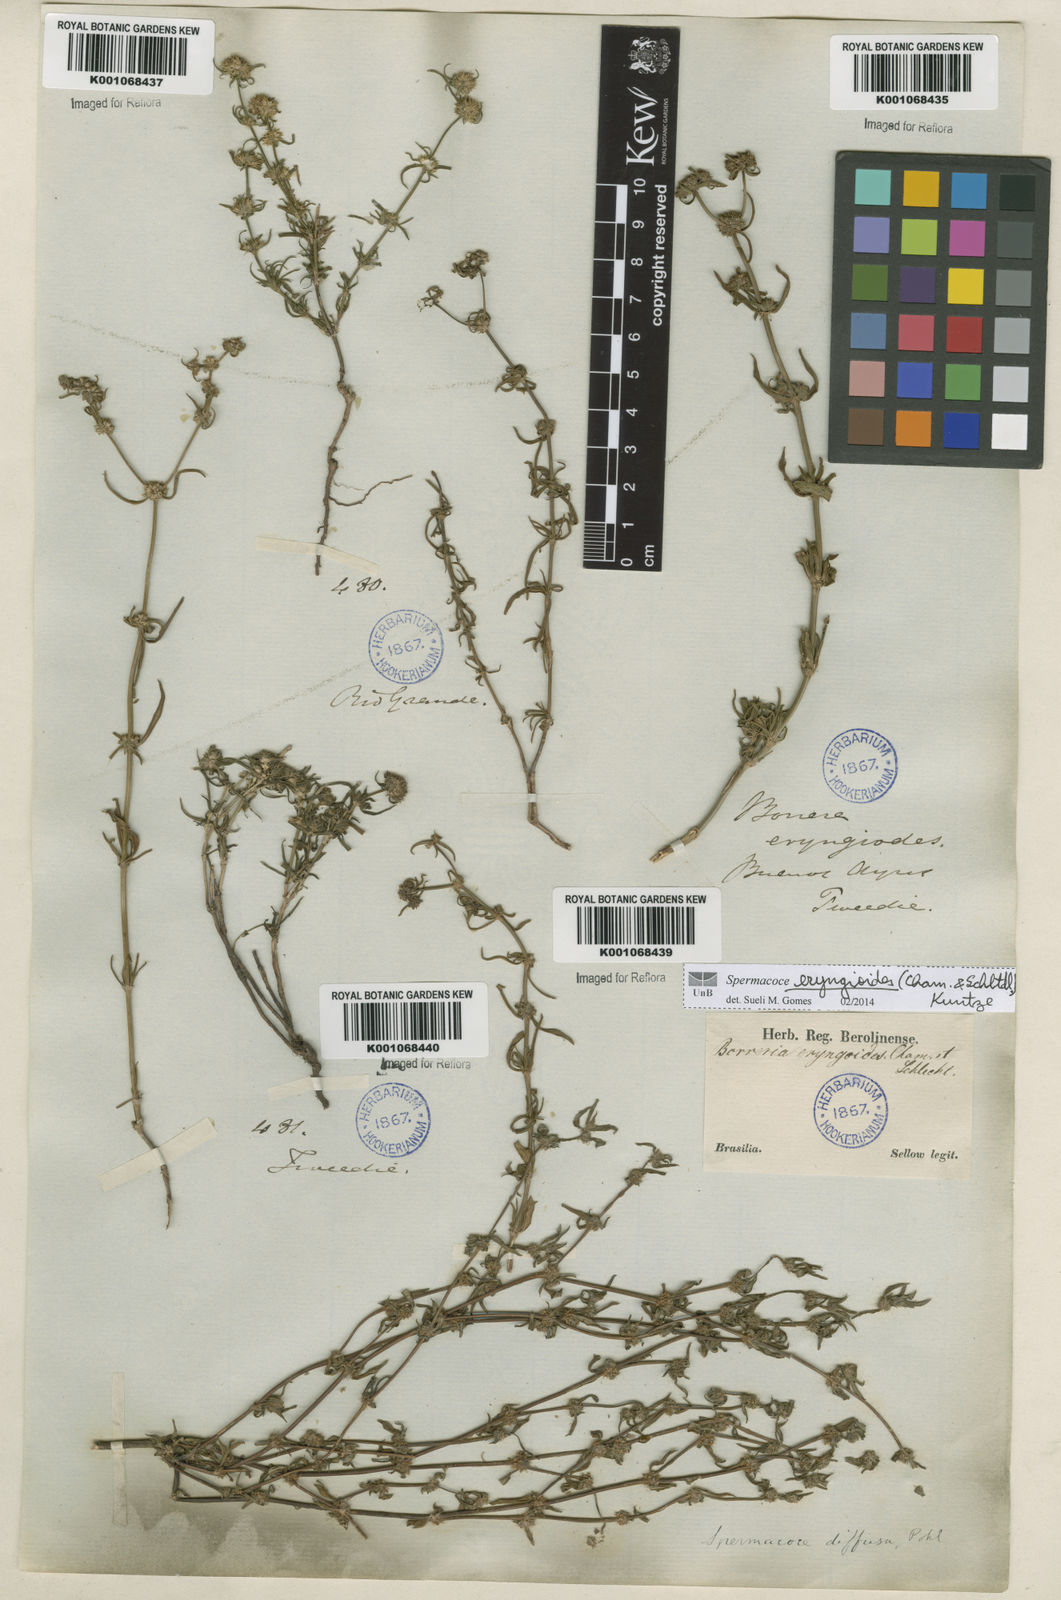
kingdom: Plantae
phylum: Tracheophyta
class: Magnoliopsida
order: Gentianales
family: Rubiaceae
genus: Spermacoce
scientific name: Spermacoce eryngioides
